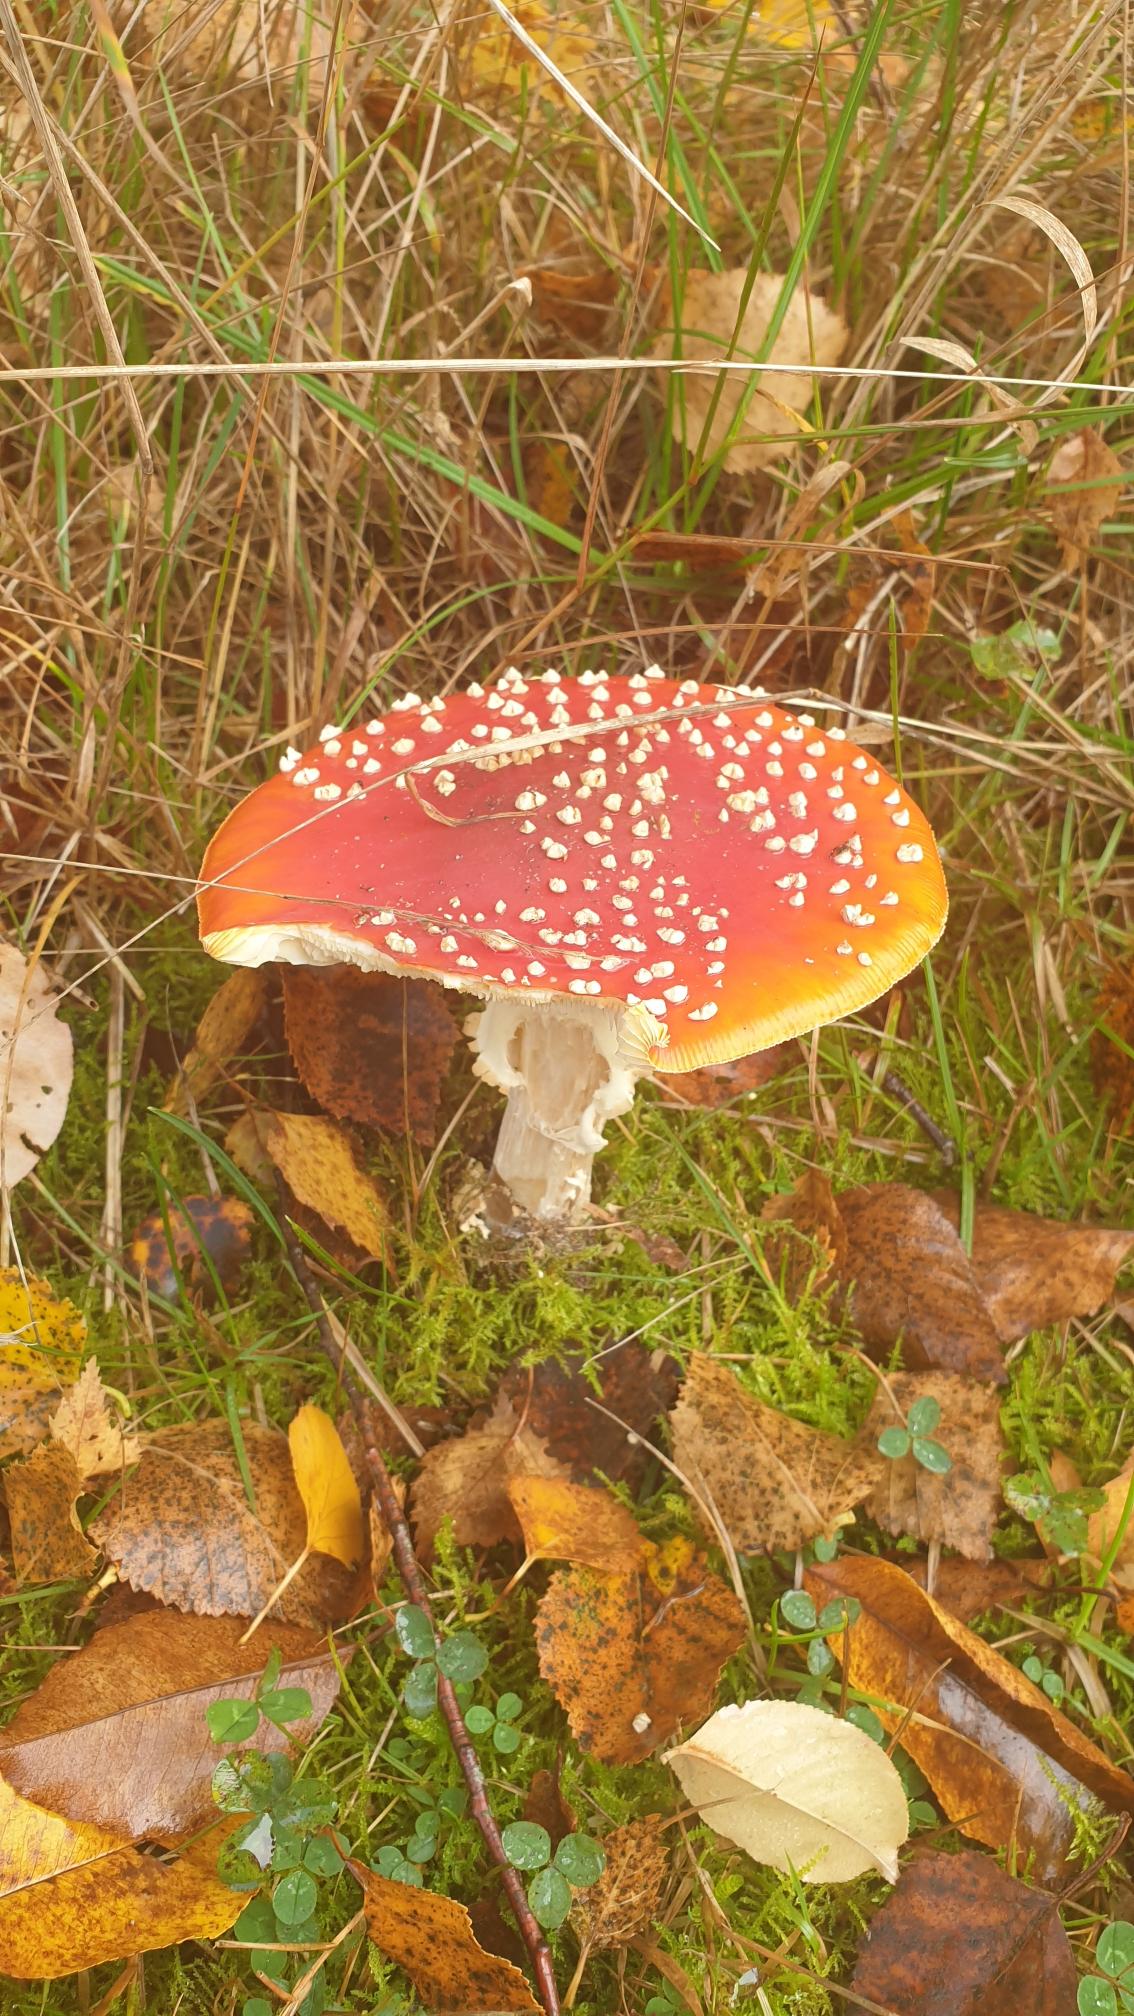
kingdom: Fungi
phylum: Basidiomycota
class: Agaricomycetes
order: Agaricales
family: Amanitaceae
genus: Amanita
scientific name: Amanita muscaria
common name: Rød fluesvamp
